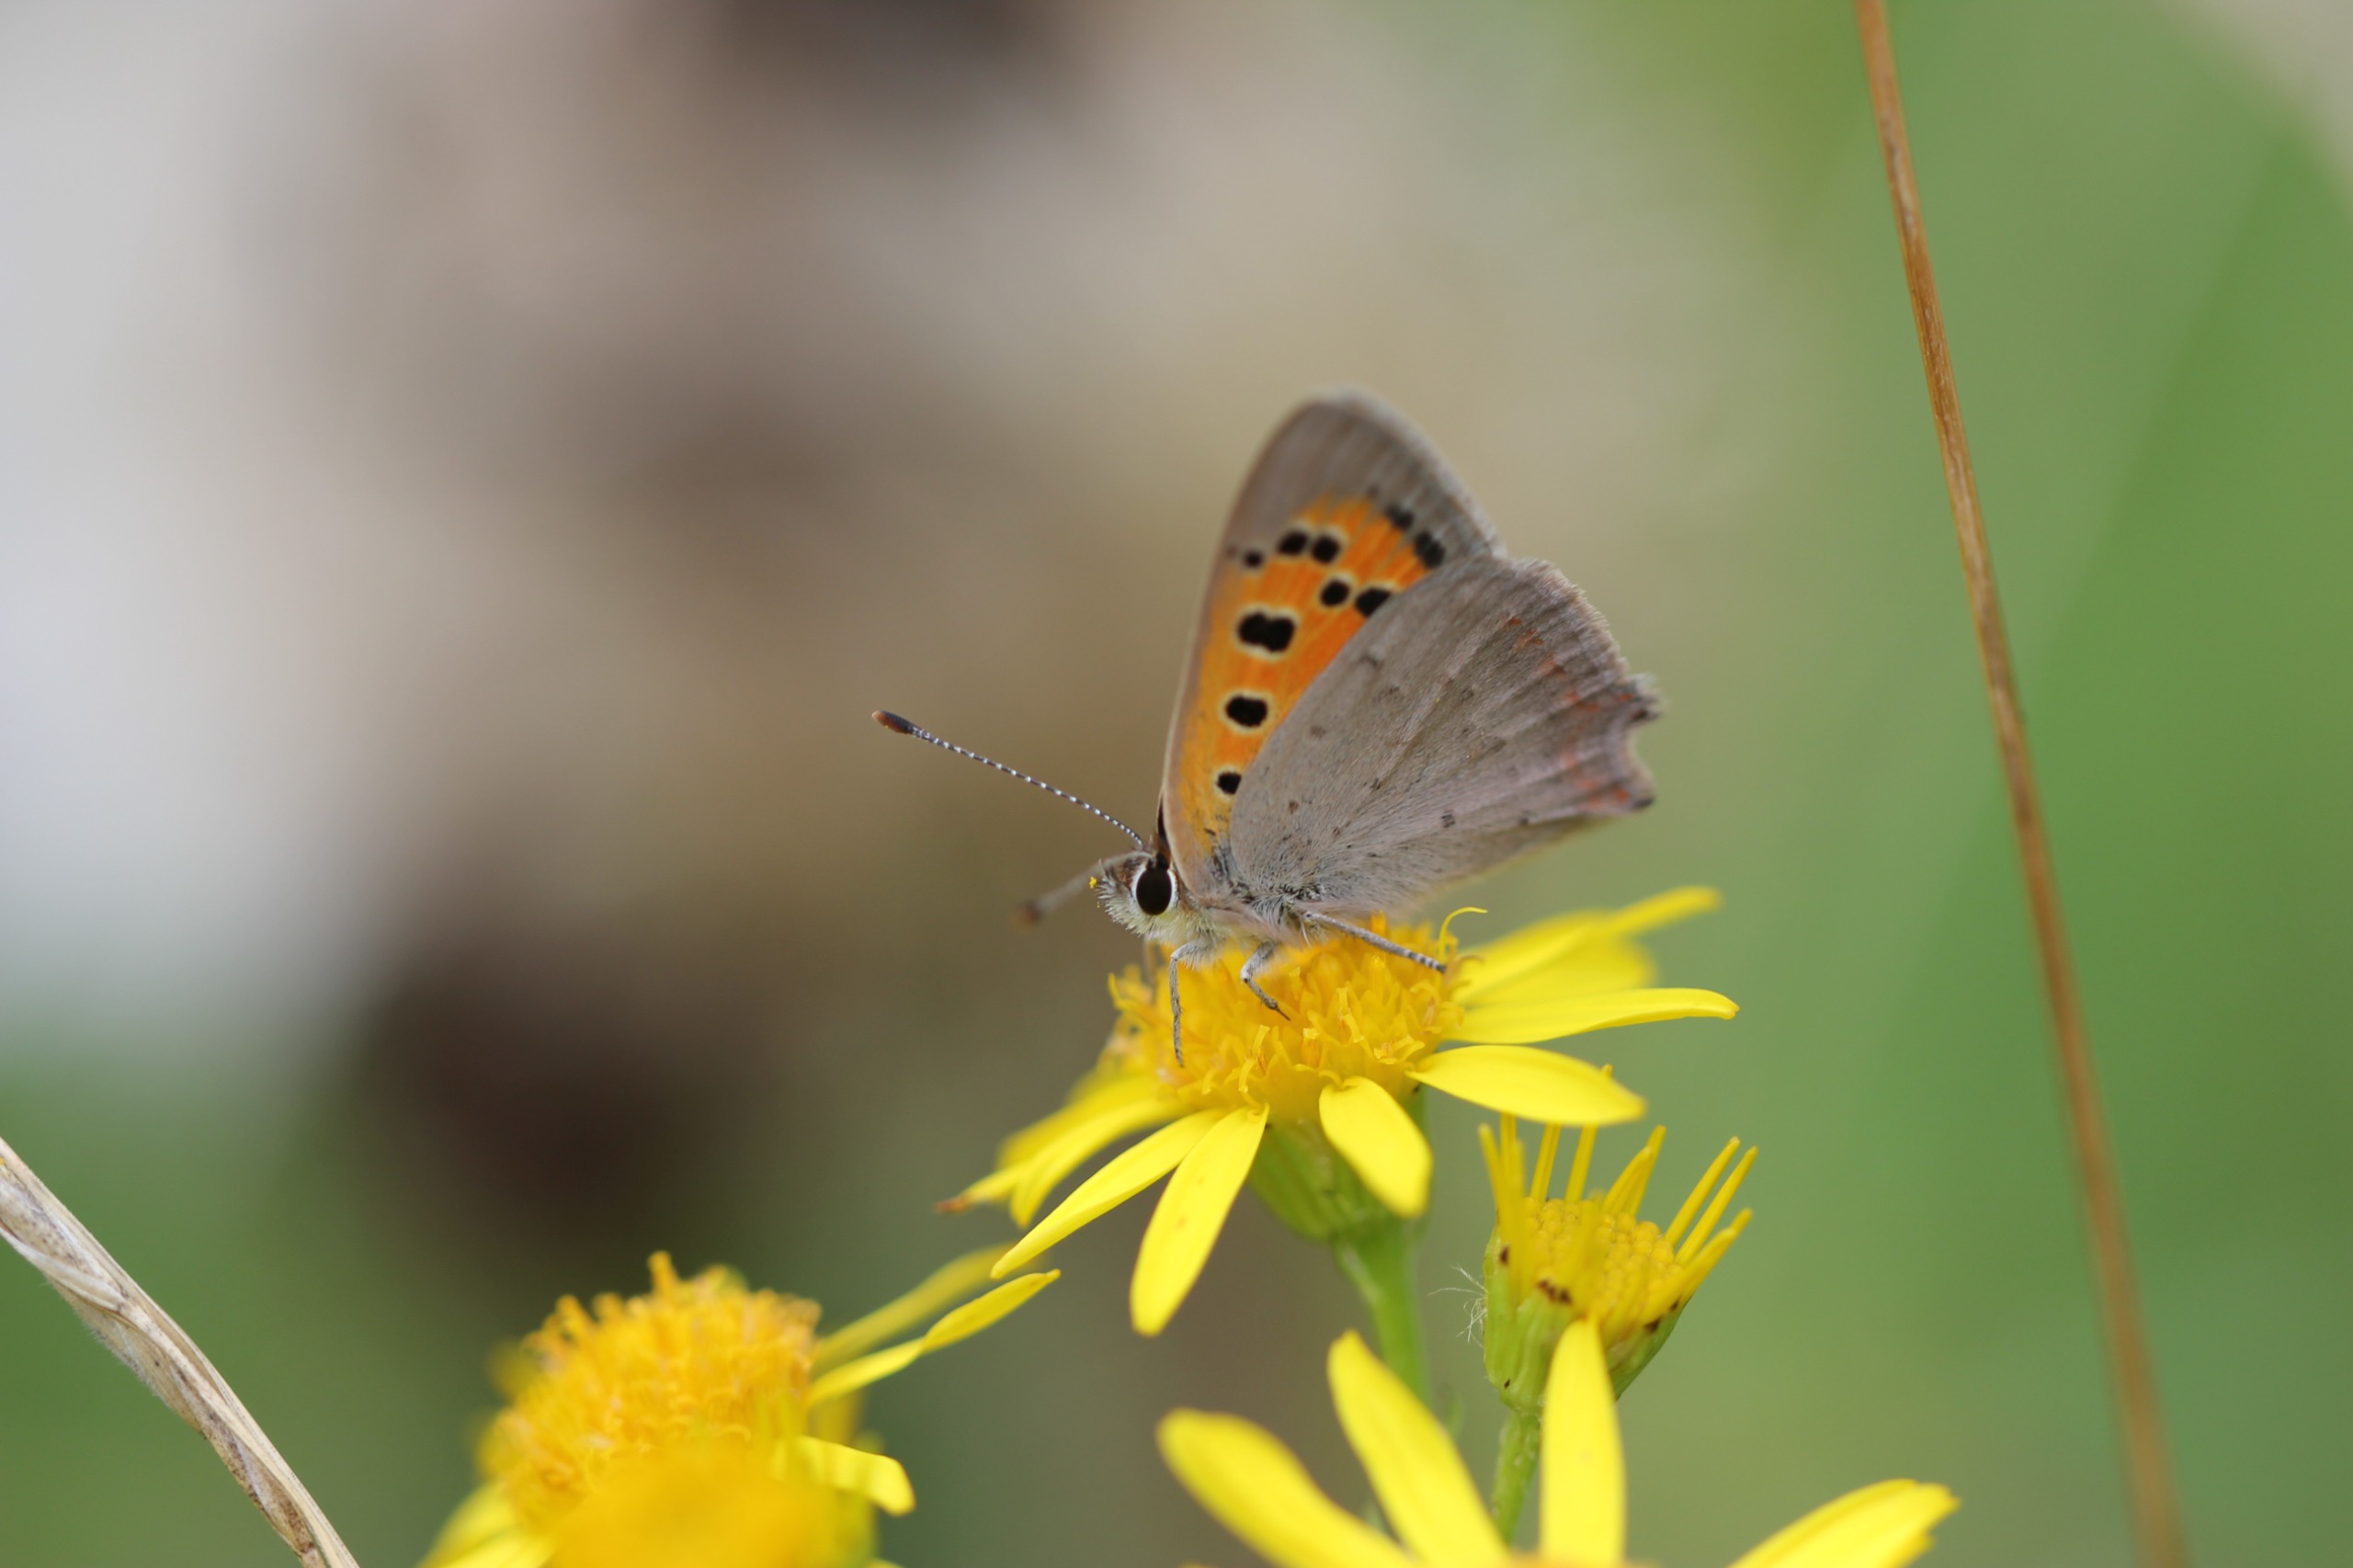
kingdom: Animalia
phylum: Arthropoda
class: Insecta
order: Lepidoptera
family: Lycaenidae
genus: Lycaena
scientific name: Lycaena phlaeas
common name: Lille ildfugl
